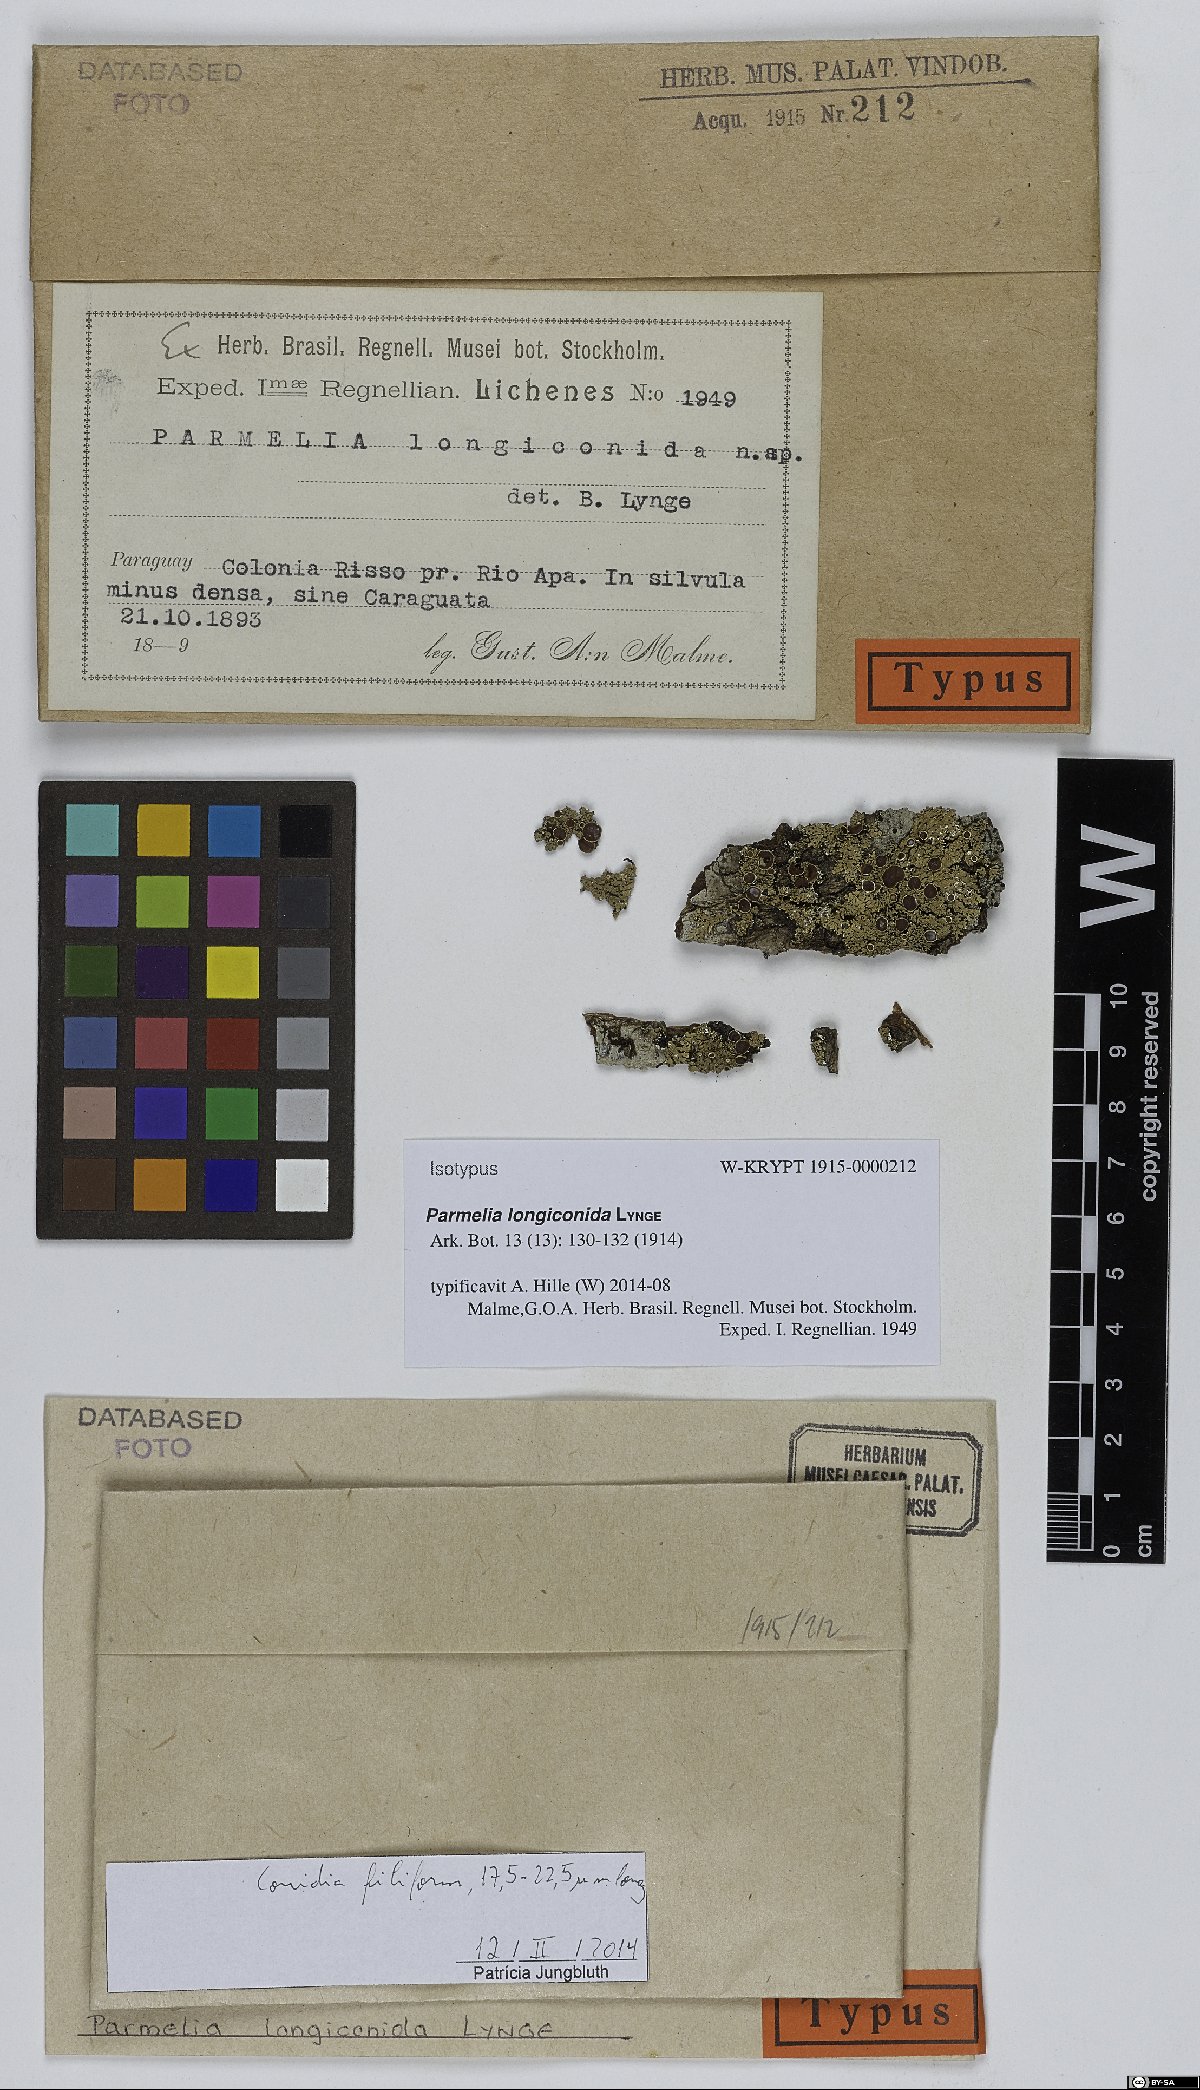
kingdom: Fungi
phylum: Ascomycota
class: Lecanoromycetes
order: Lecanorales
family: Parmeliaceae
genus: Crespoa
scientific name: Crespoa scrobicularis
